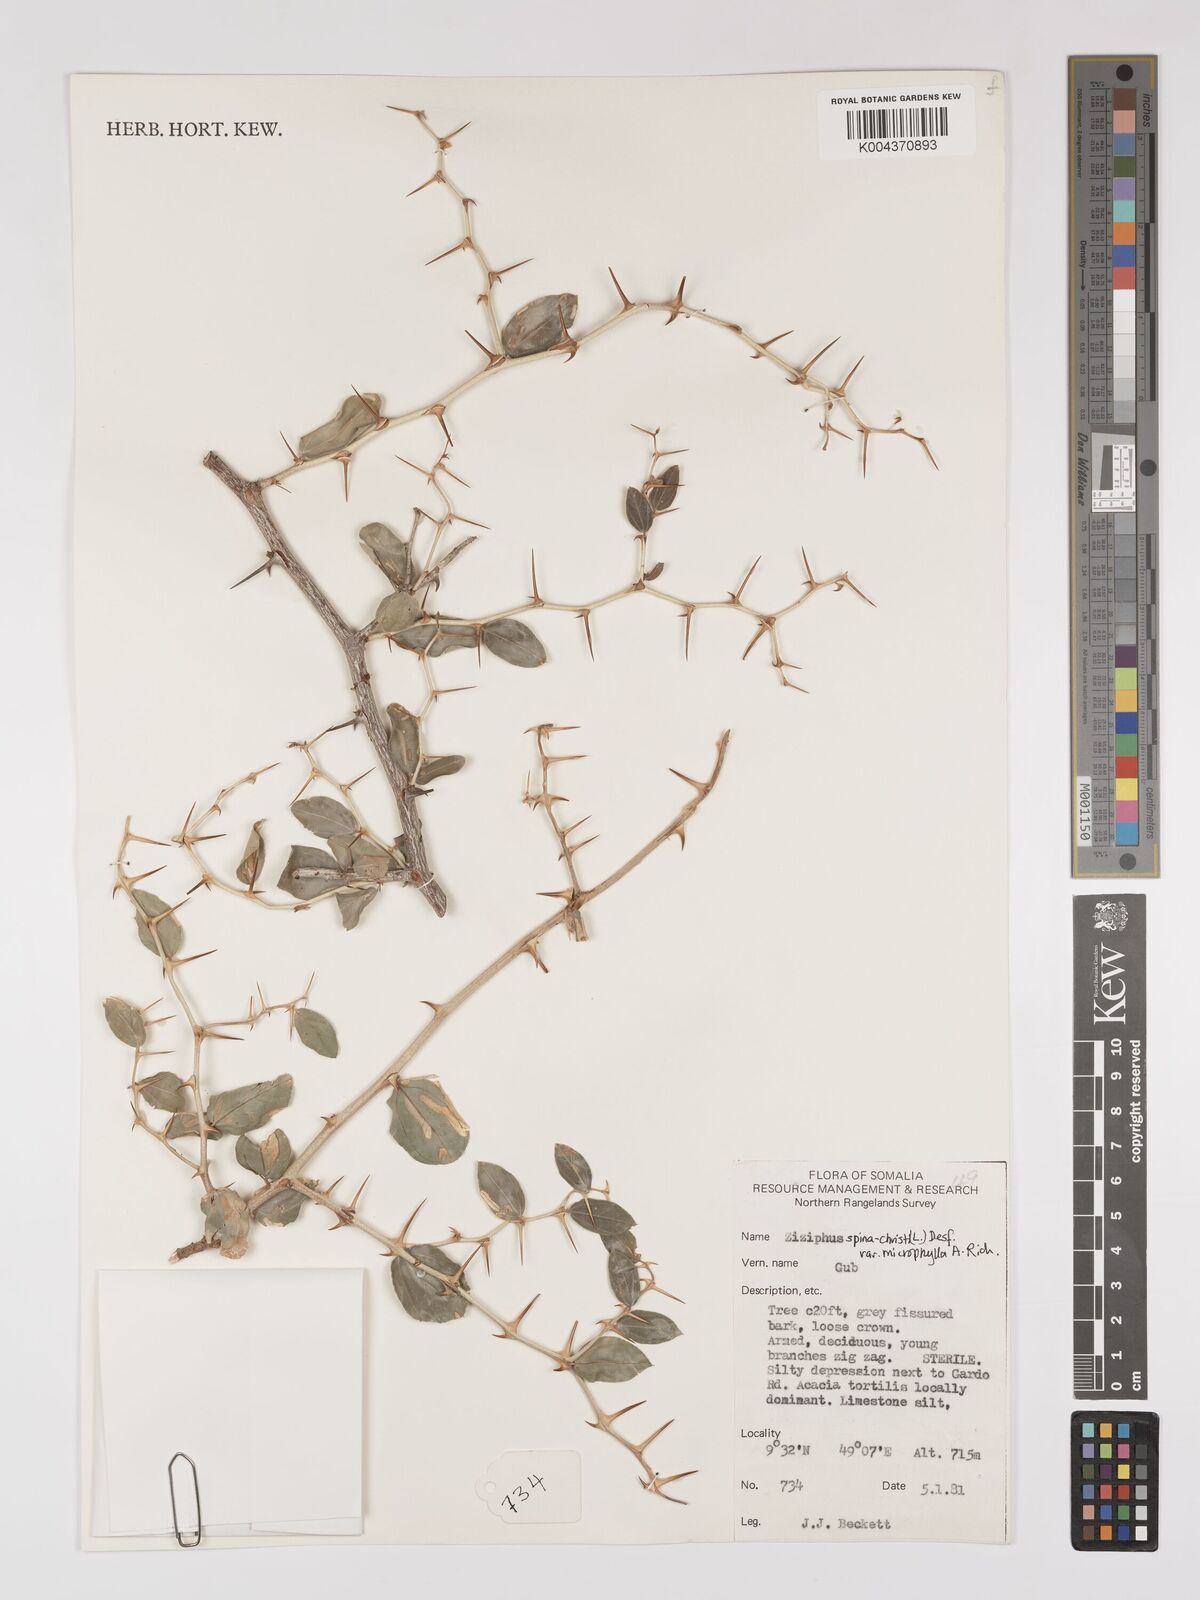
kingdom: Plantae
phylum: Tracheophyta
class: Magnoliopsida
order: Rosales
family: Rhamnaceae
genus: Ziziphus
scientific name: Ziziphus spina-christi
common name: Syrian christ-thorn
